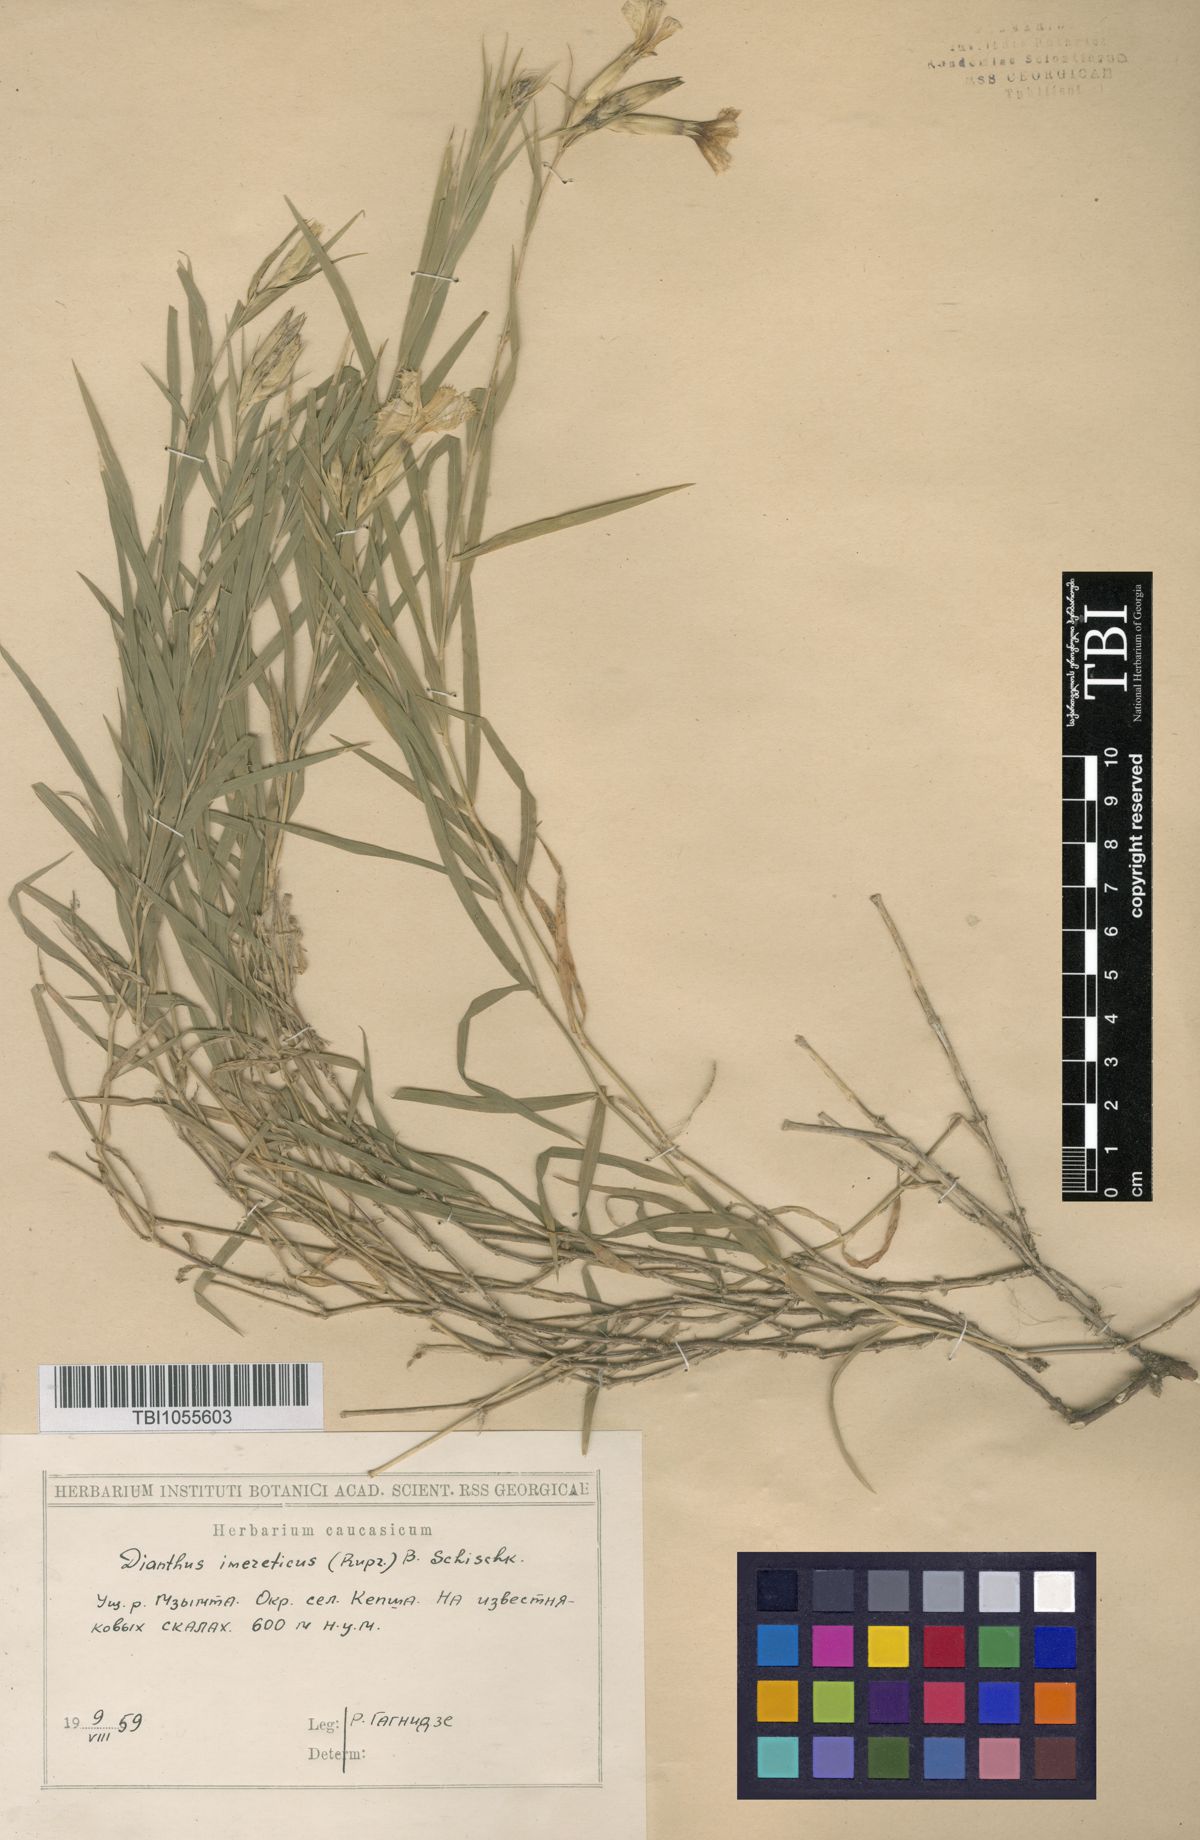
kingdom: Plantae
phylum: Tracheophyta
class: Magnoliopsida
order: Caryophyllales
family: Caryophyllaceae
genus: Dianthus
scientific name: Dianthus imereticus
